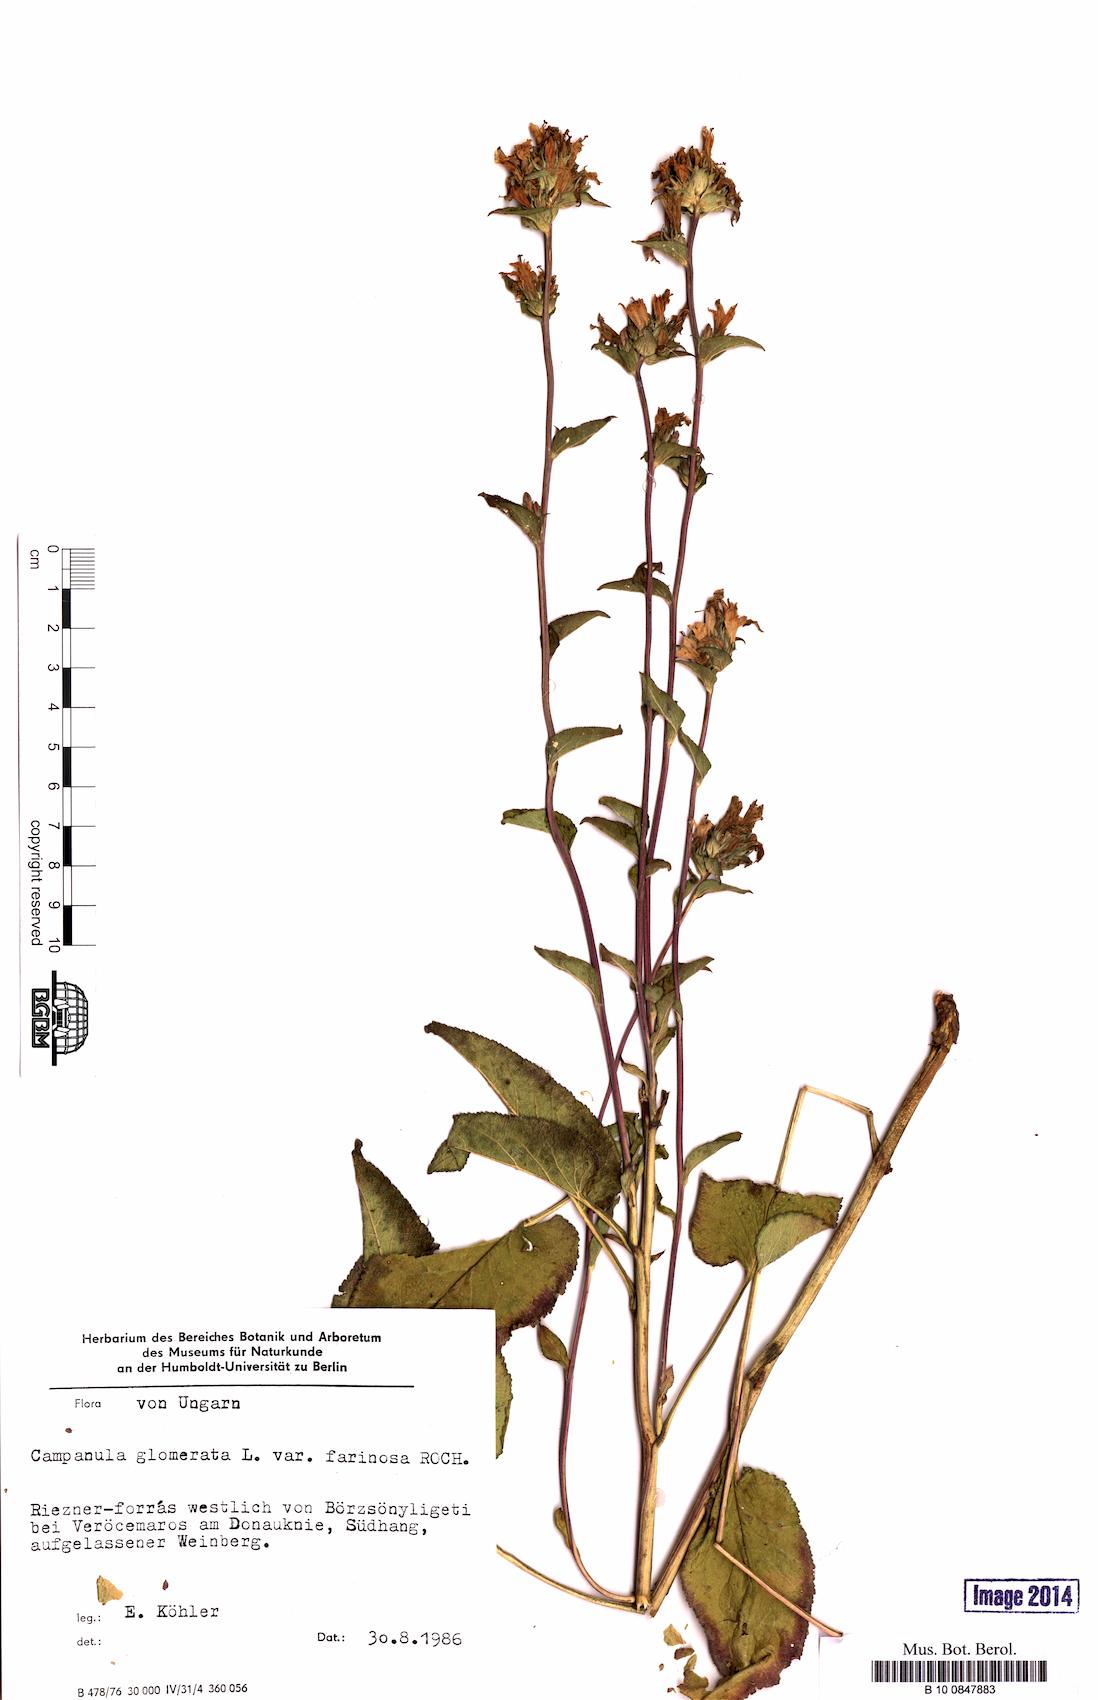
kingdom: Plantae
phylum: Tracheophyta
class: Magnoliopsida
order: Asterales
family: Campanulaceae
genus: Campanula
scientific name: Campanula glomerata
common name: Clustered bellflower
